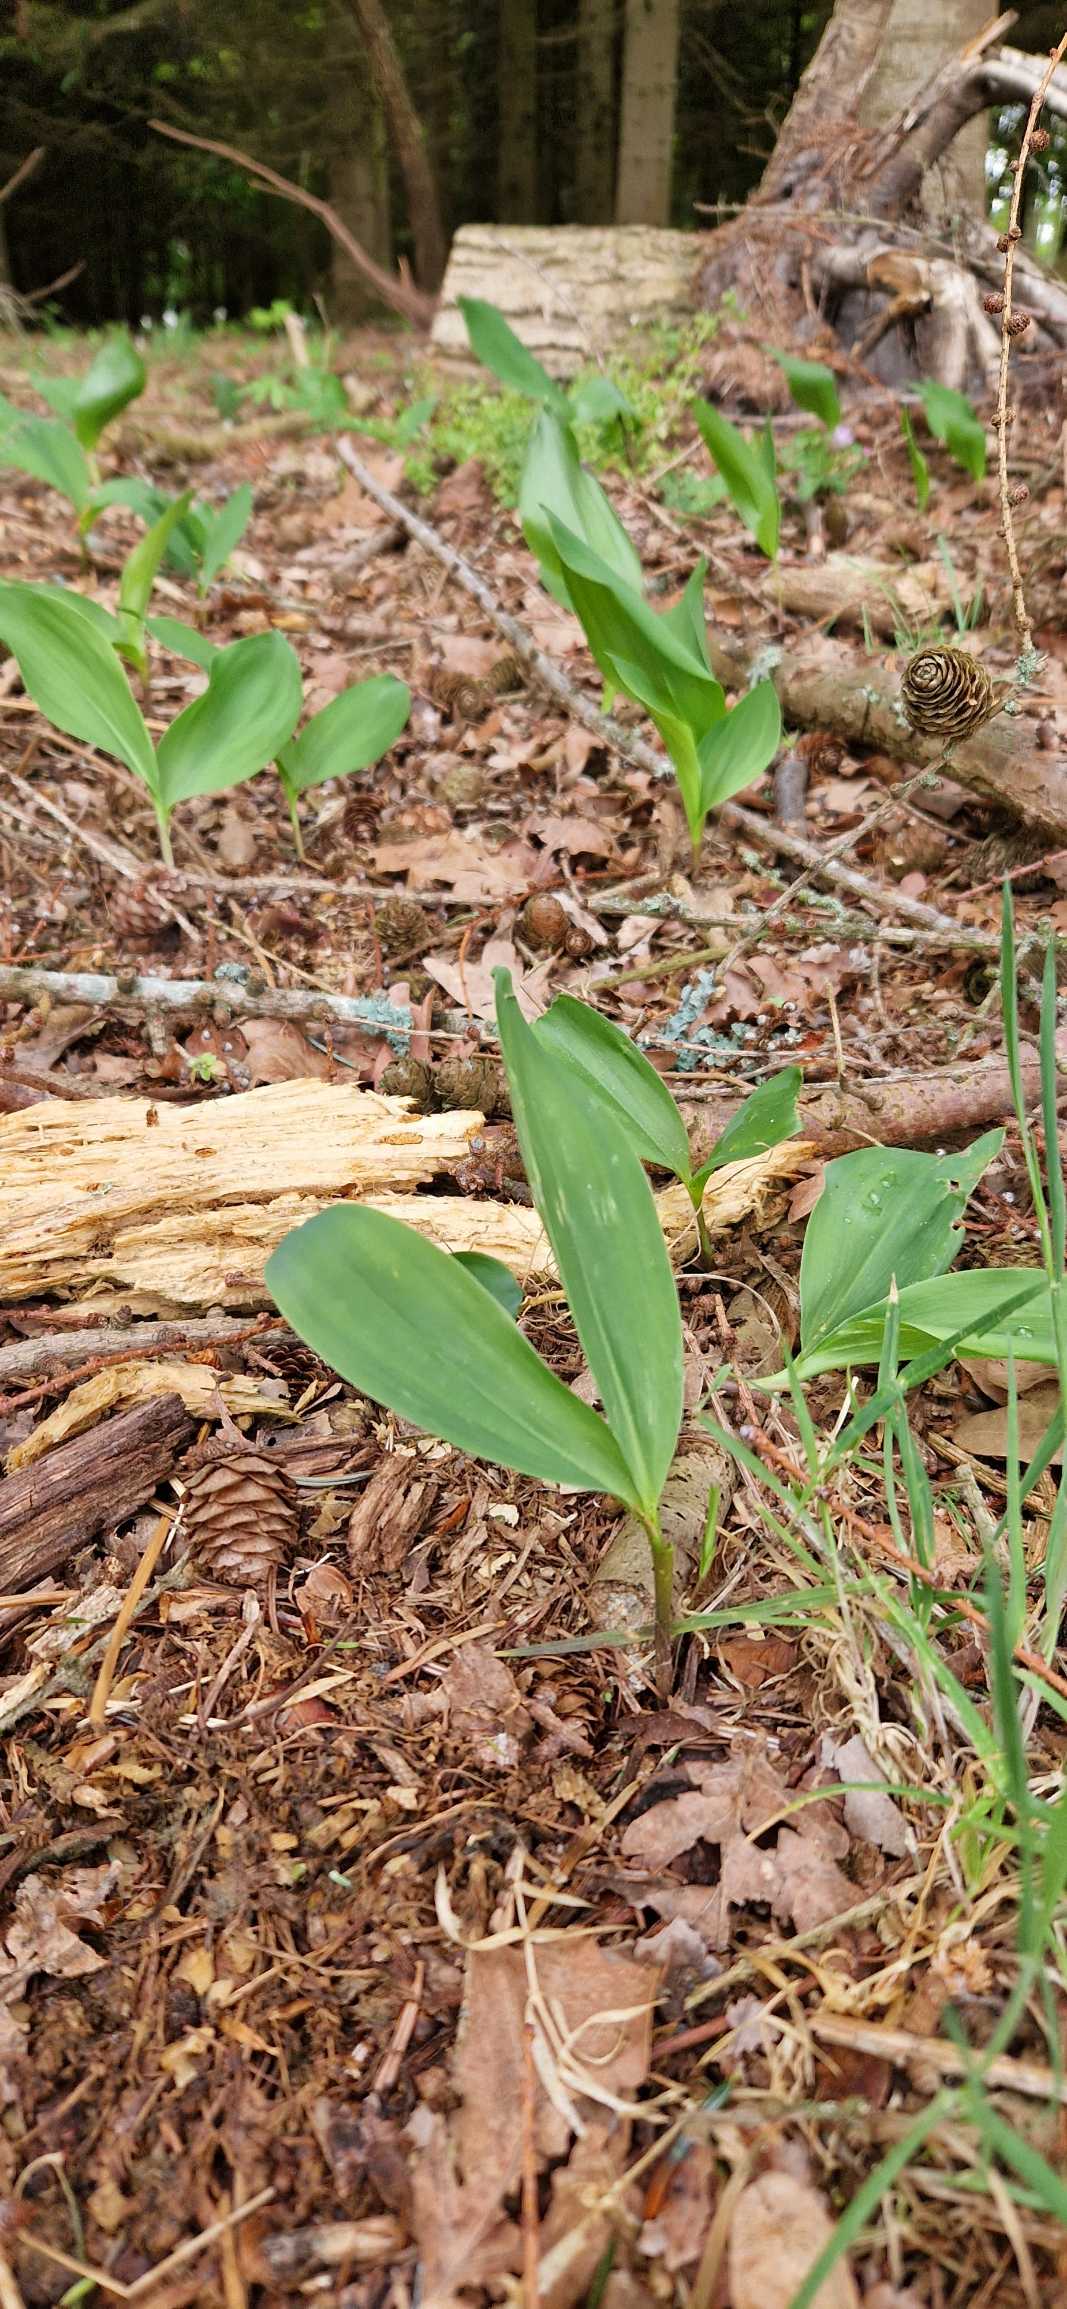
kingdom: Plantae
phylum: Tracheophyta
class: Liliopsida
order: Asparagales
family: Asparagaceae
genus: Convallaria
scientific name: Convallaria majalis
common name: Liljekonval
